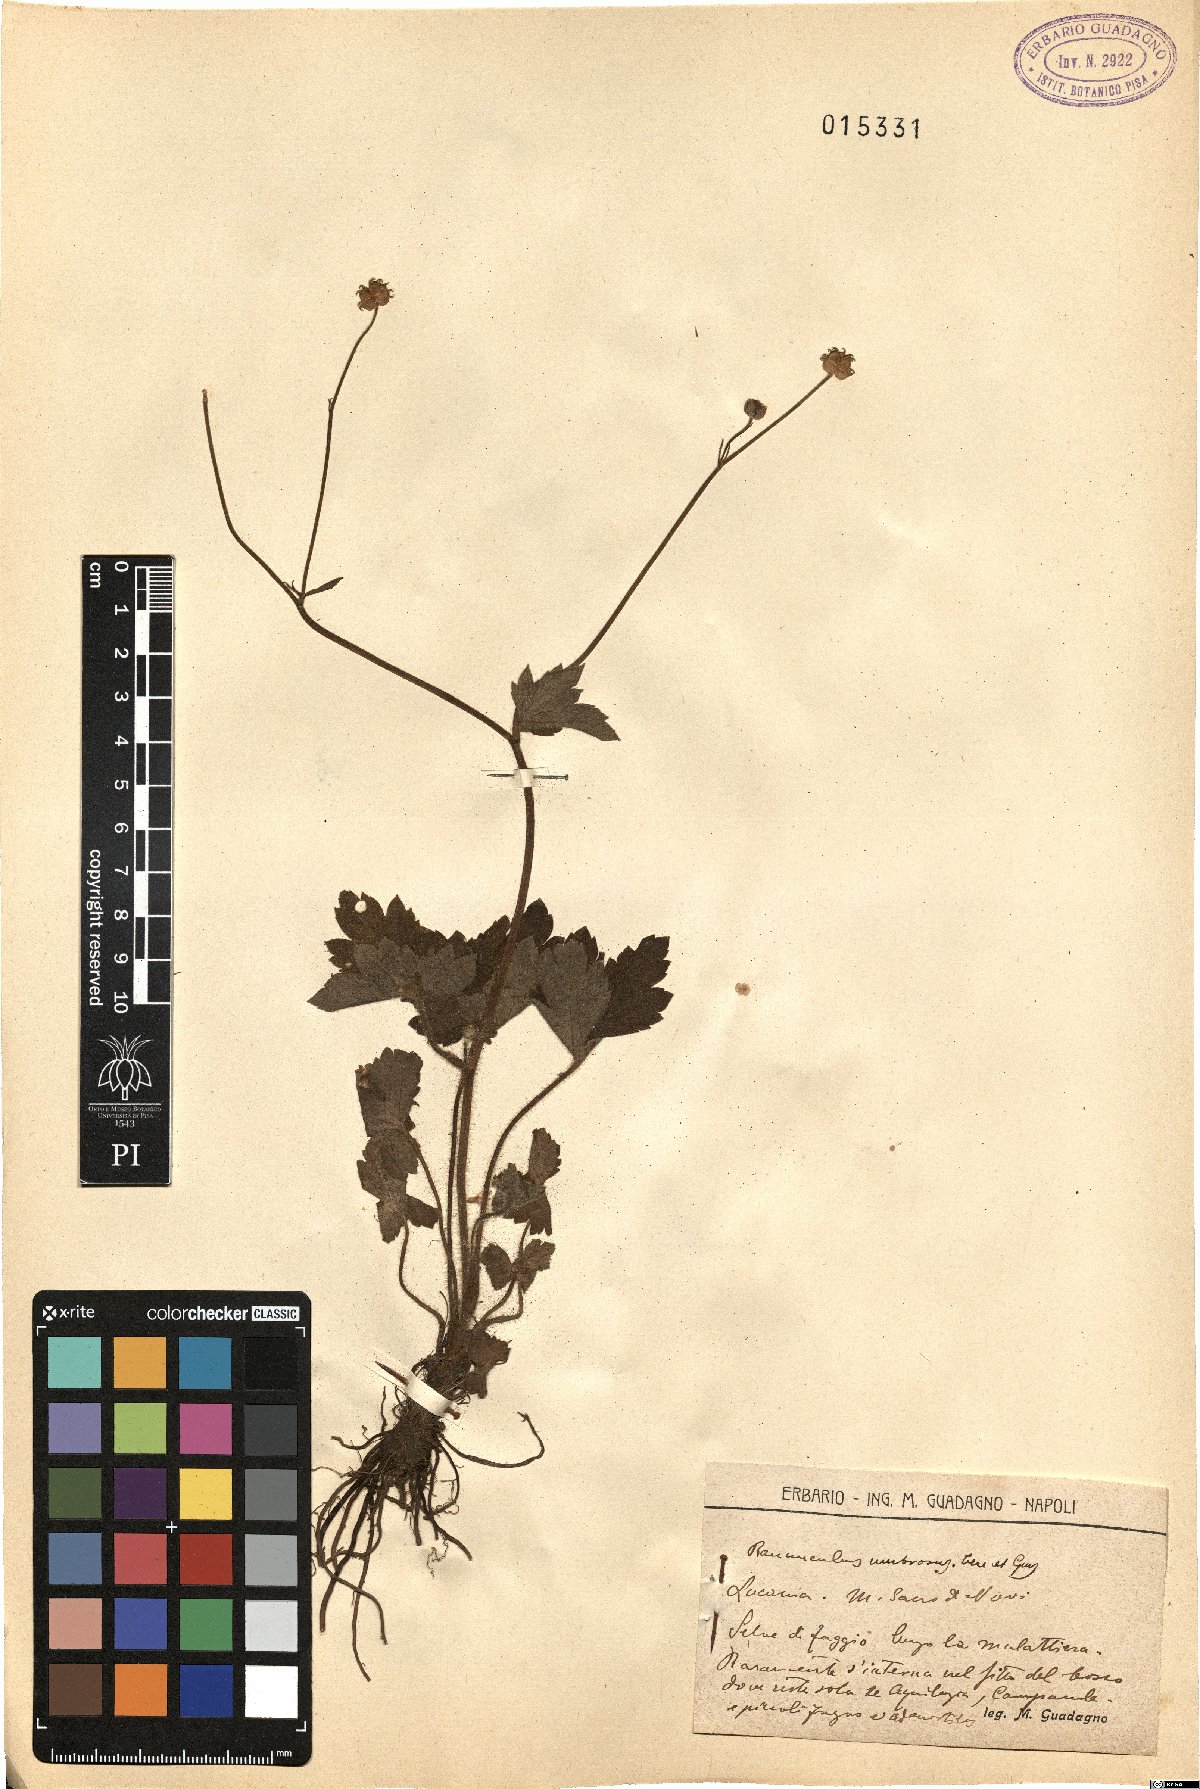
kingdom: Plantae
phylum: Tracheophyta
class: Magnoliopsida
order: Ranunculales
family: Ranunculaceae
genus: Ranunculus
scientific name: Ranunculus lanuginosus
